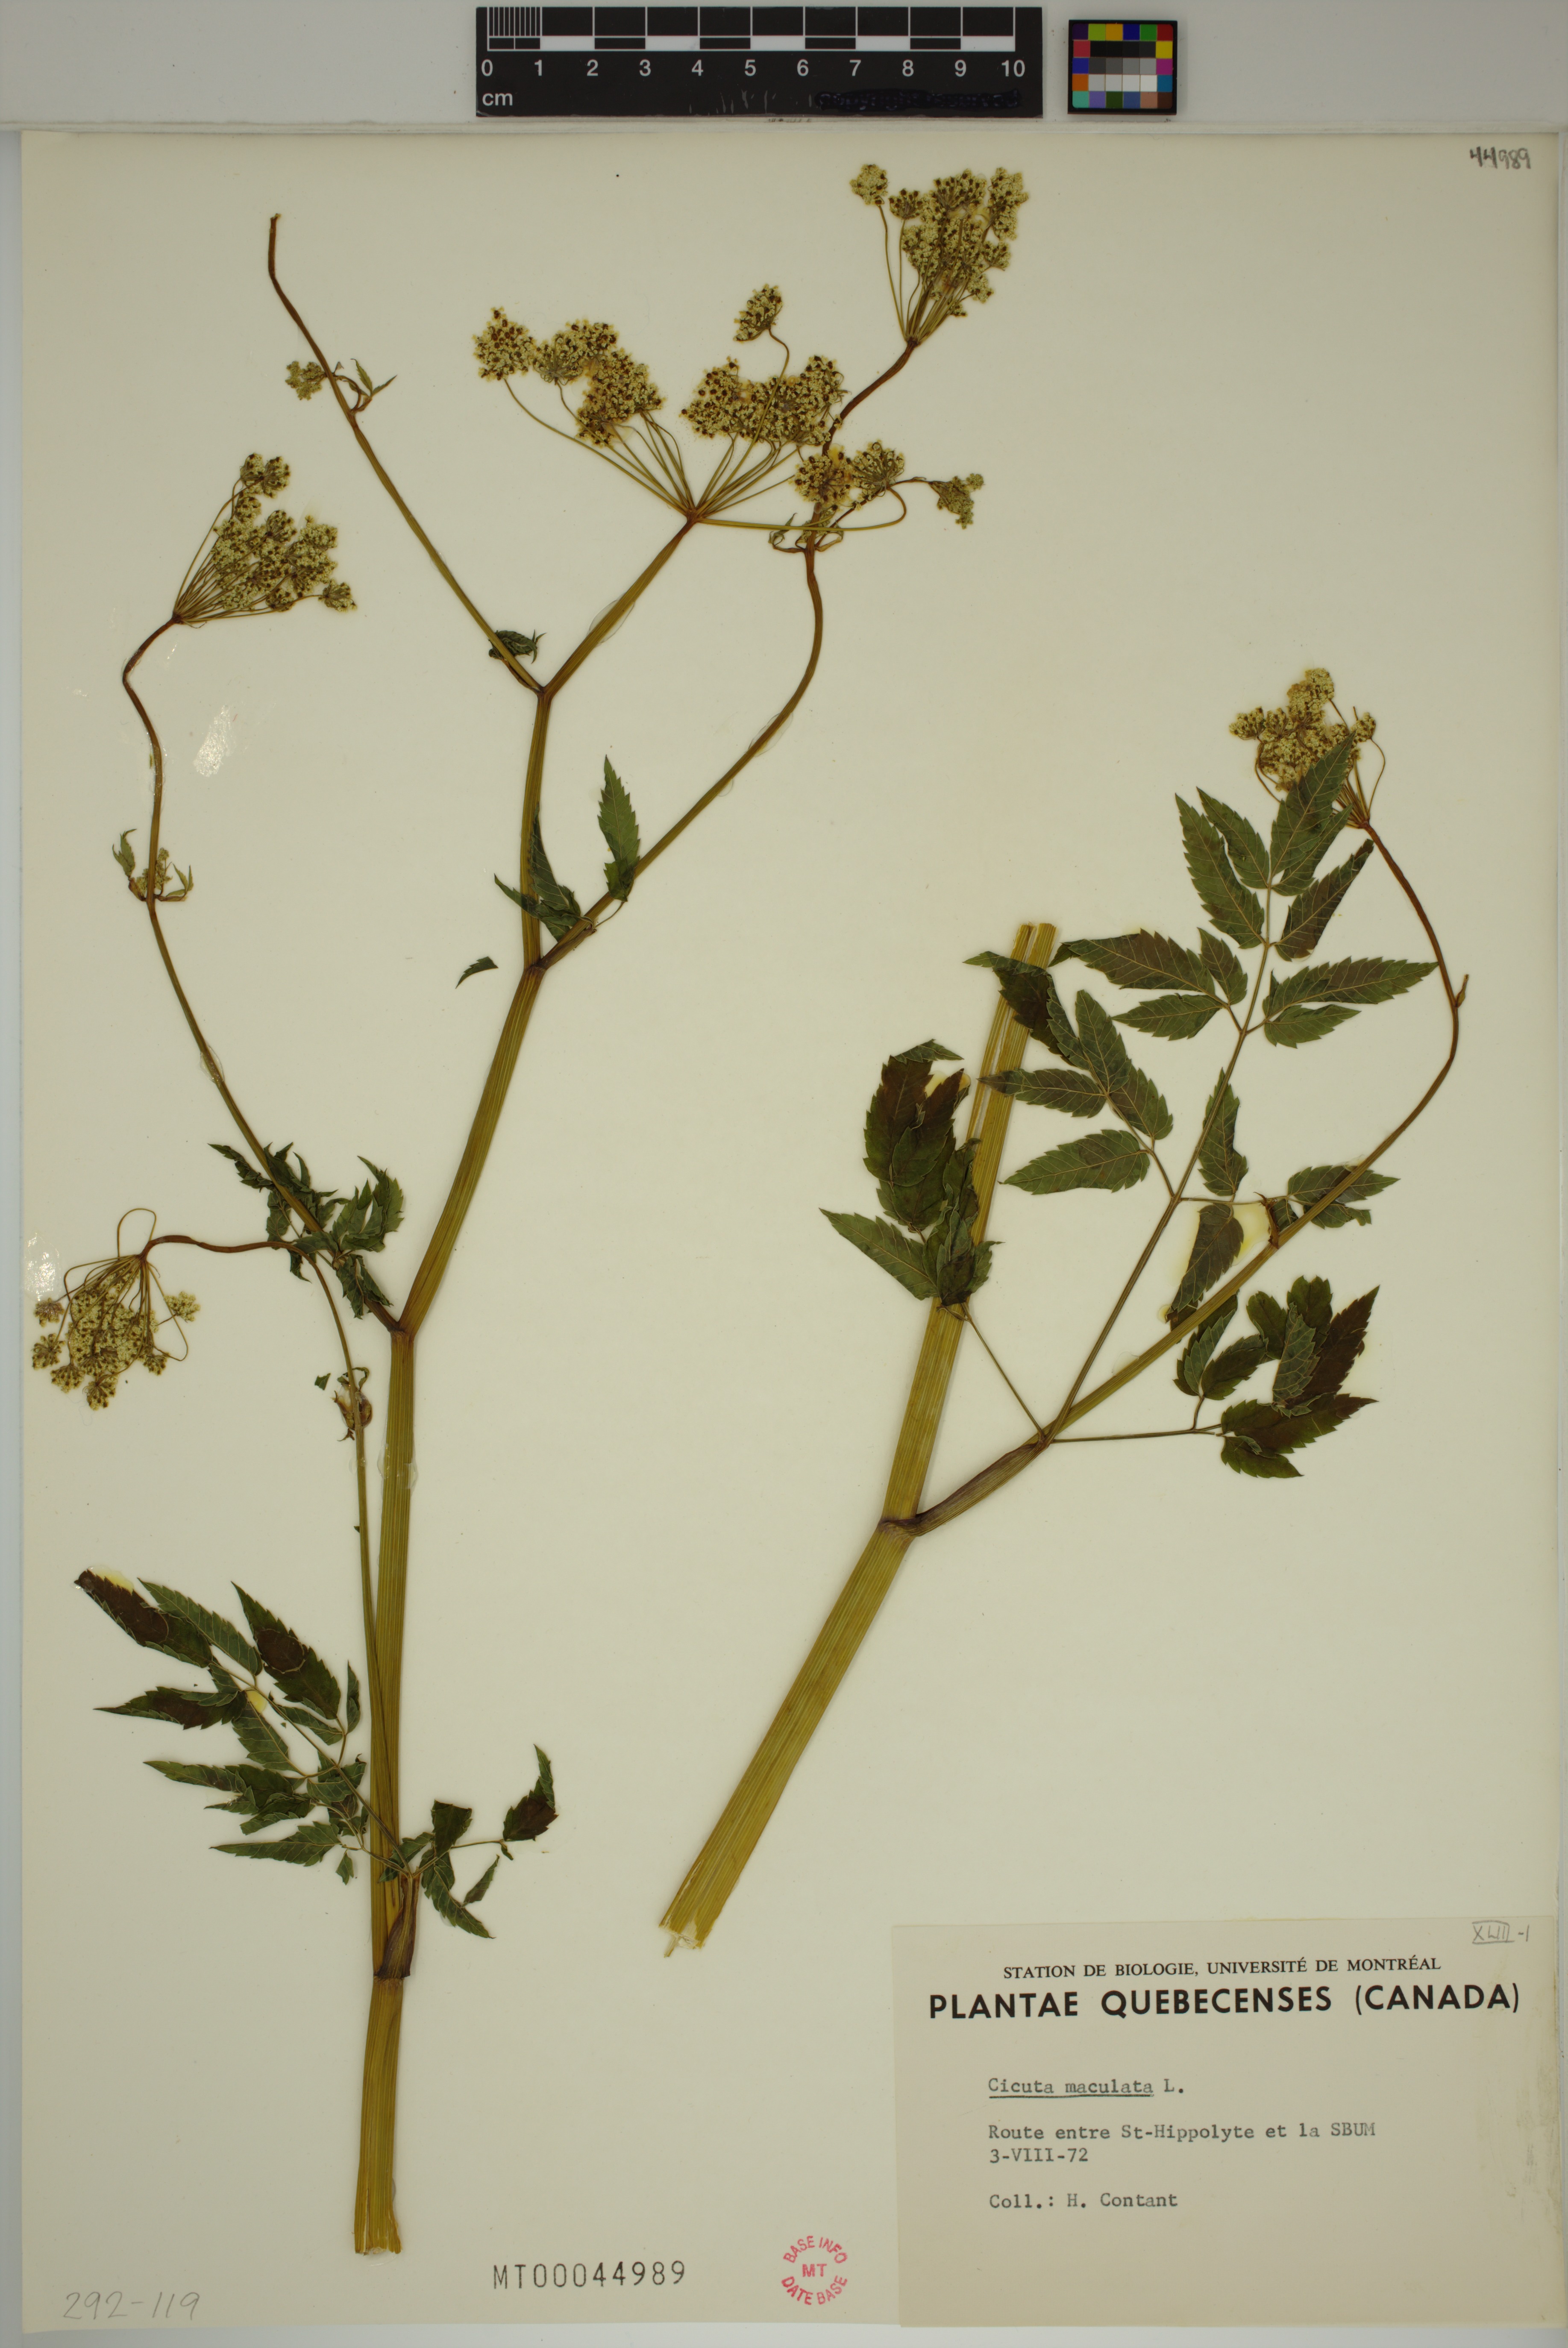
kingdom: Plantae
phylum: Tracheophyta
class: Magnoliopsida
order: Apiales
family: Apiaceae
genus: Cicuta
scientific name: Cicuta maculata
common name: Spotted cowbane
